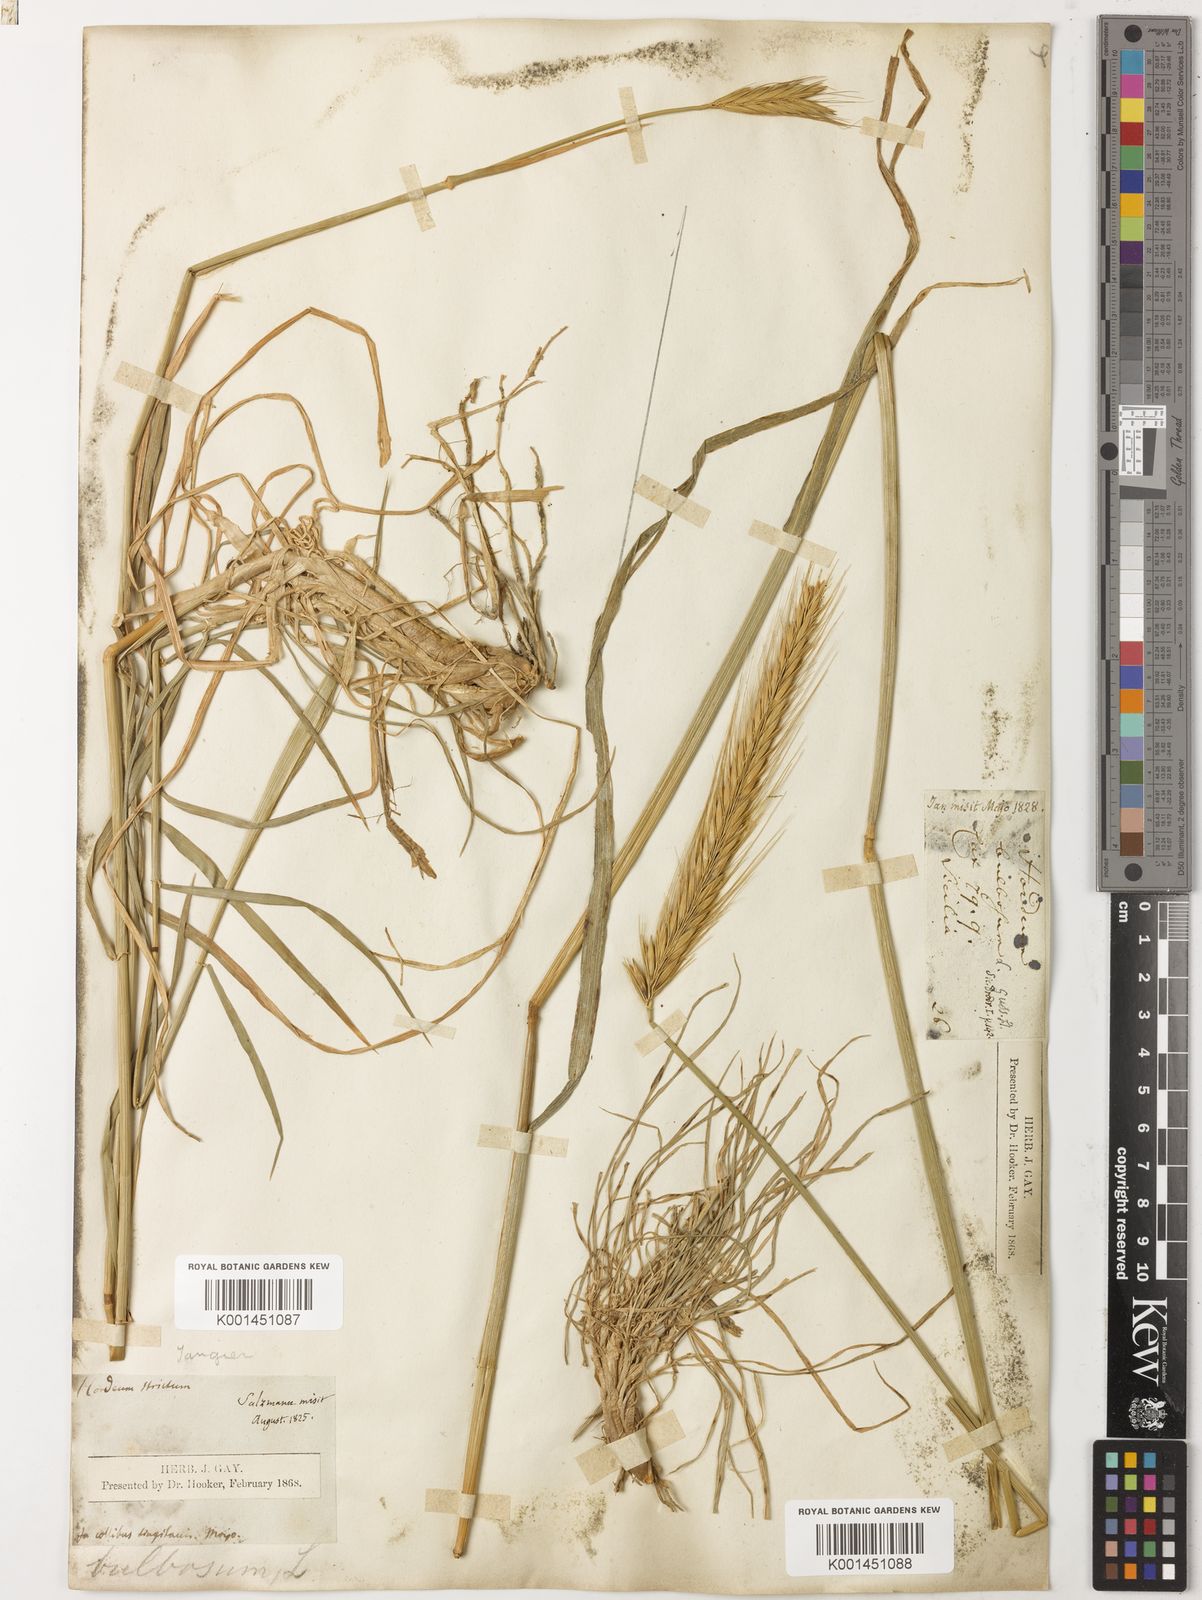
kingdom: Plantae
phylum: Tracheophyta
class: Liliopsida
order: Poales
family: Poaceae
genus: Hordeum
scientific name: Hordeum bulbosum
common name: Bulbous barley
